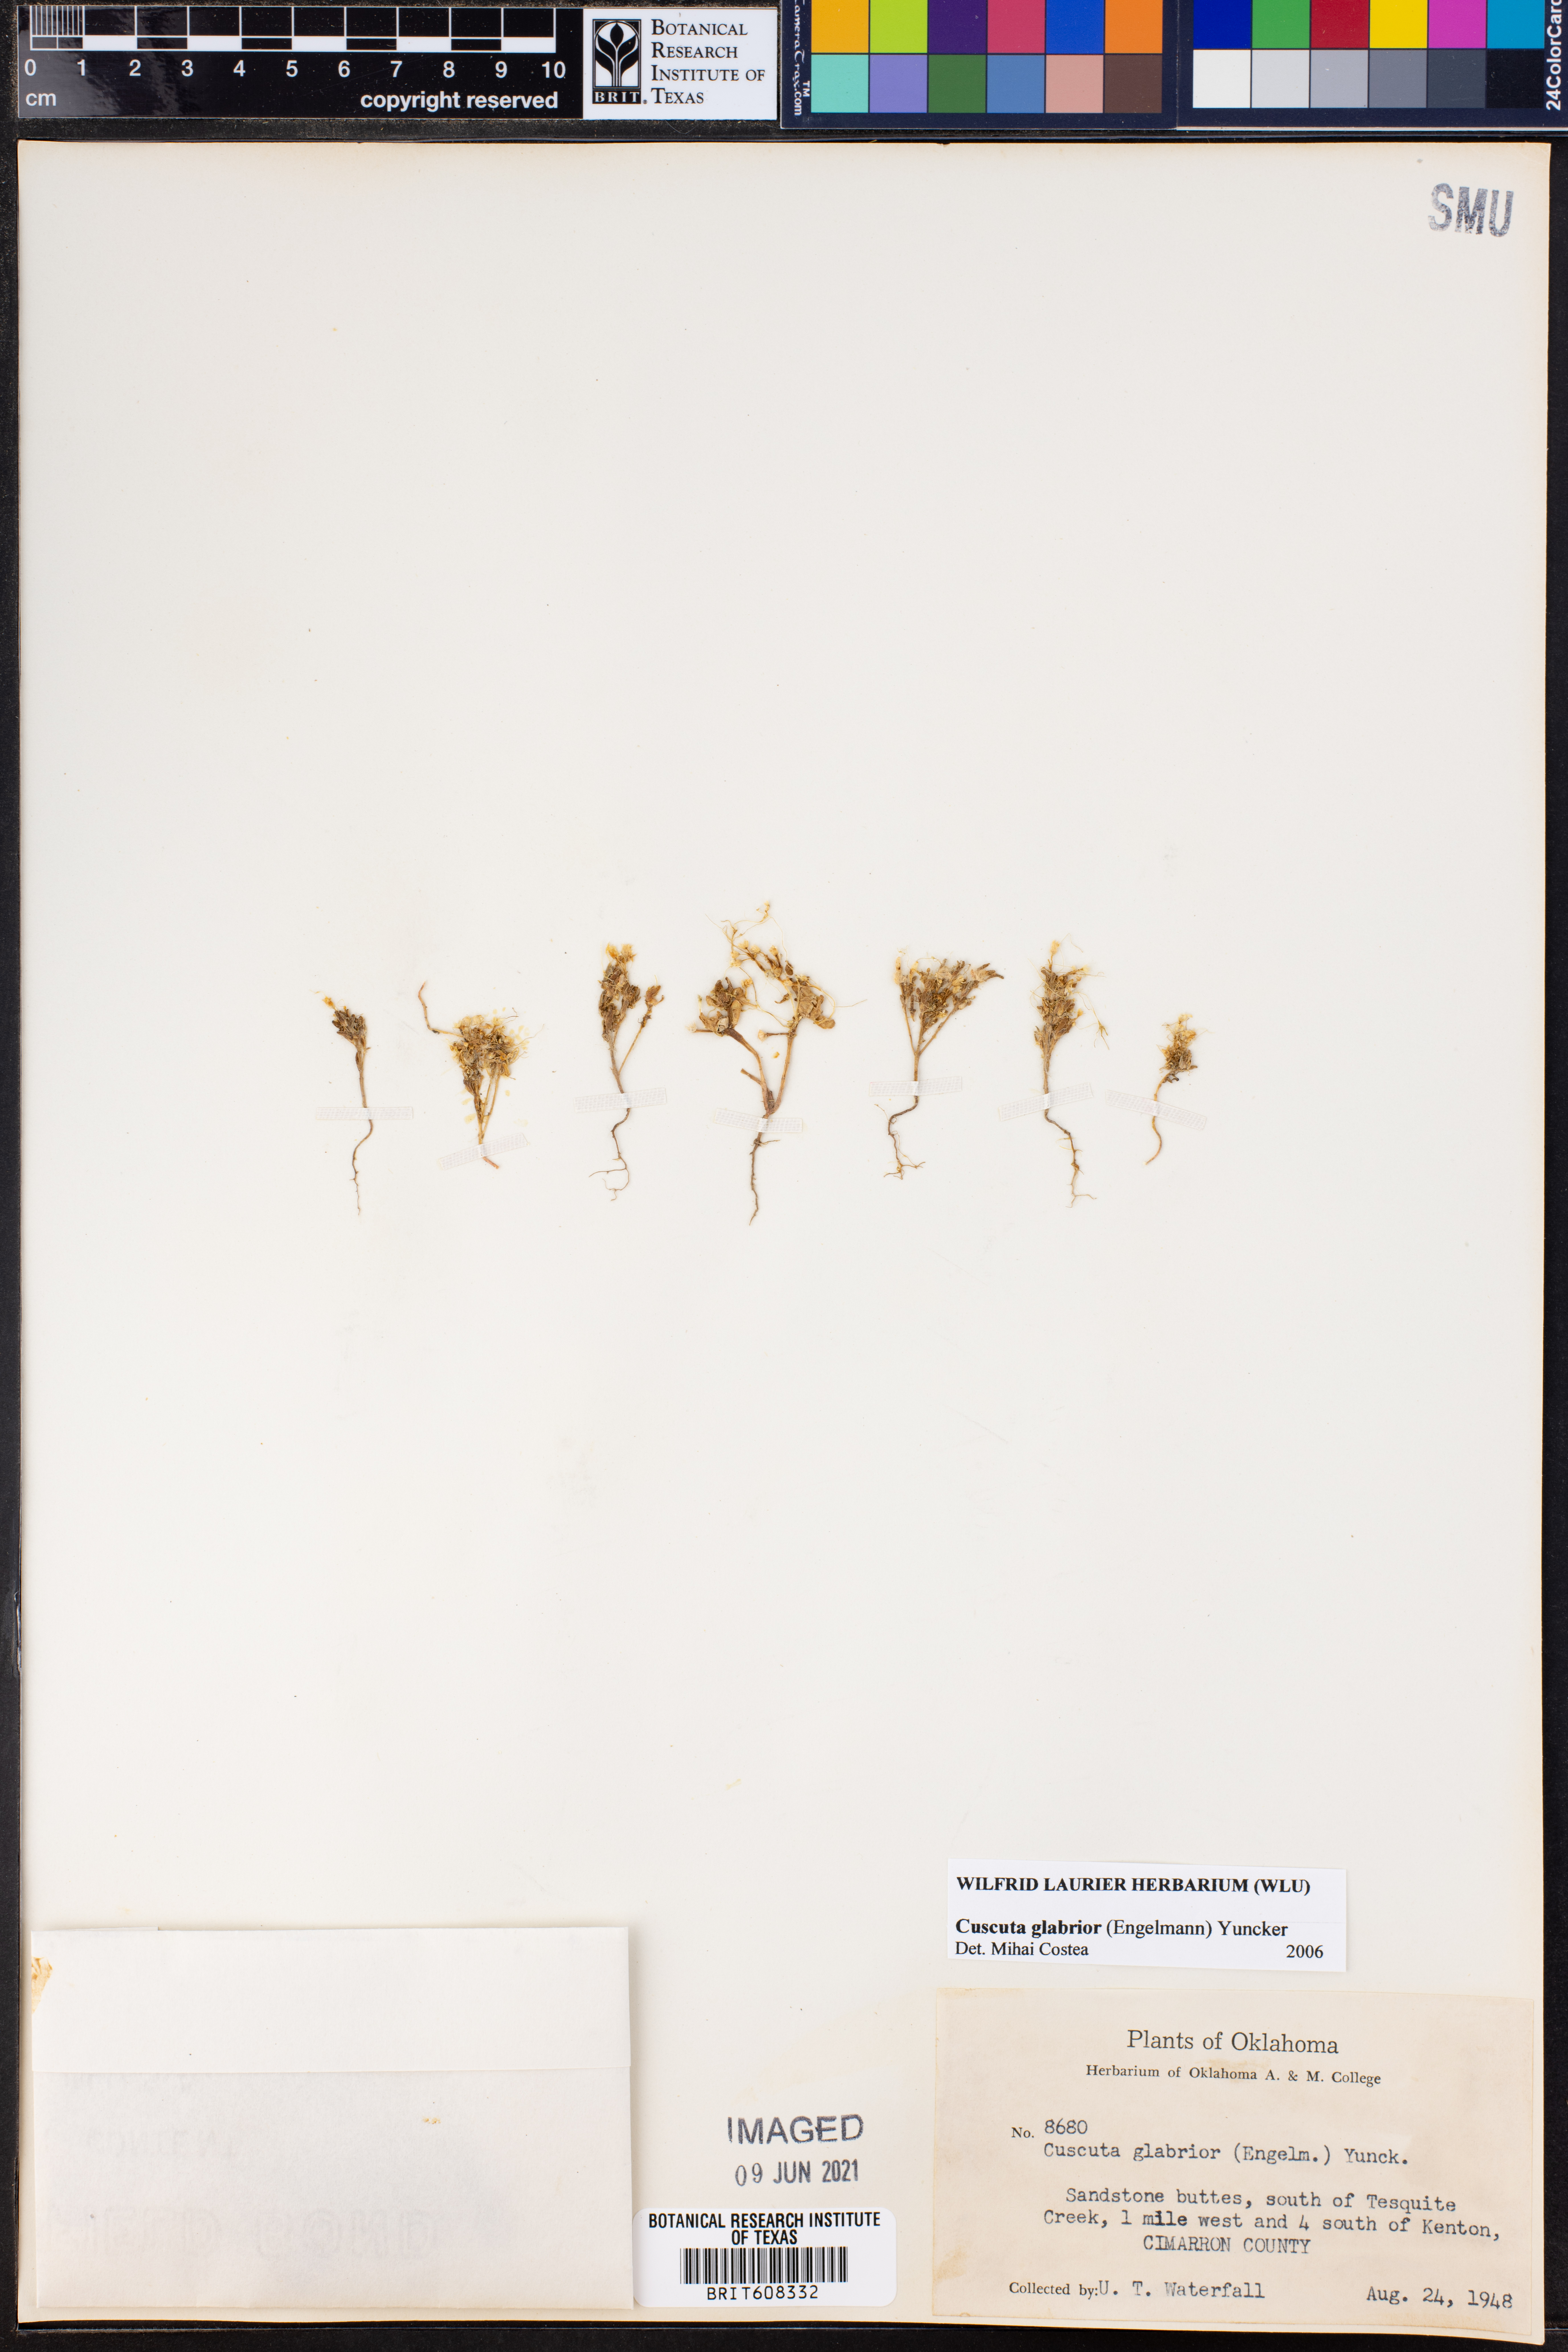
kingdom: Plantae
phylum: Tracheophyta
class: Magnoliopsida
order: Solanales
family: Convolvulaceae
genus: Cuscuta
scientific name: Cuscuta glabrior
